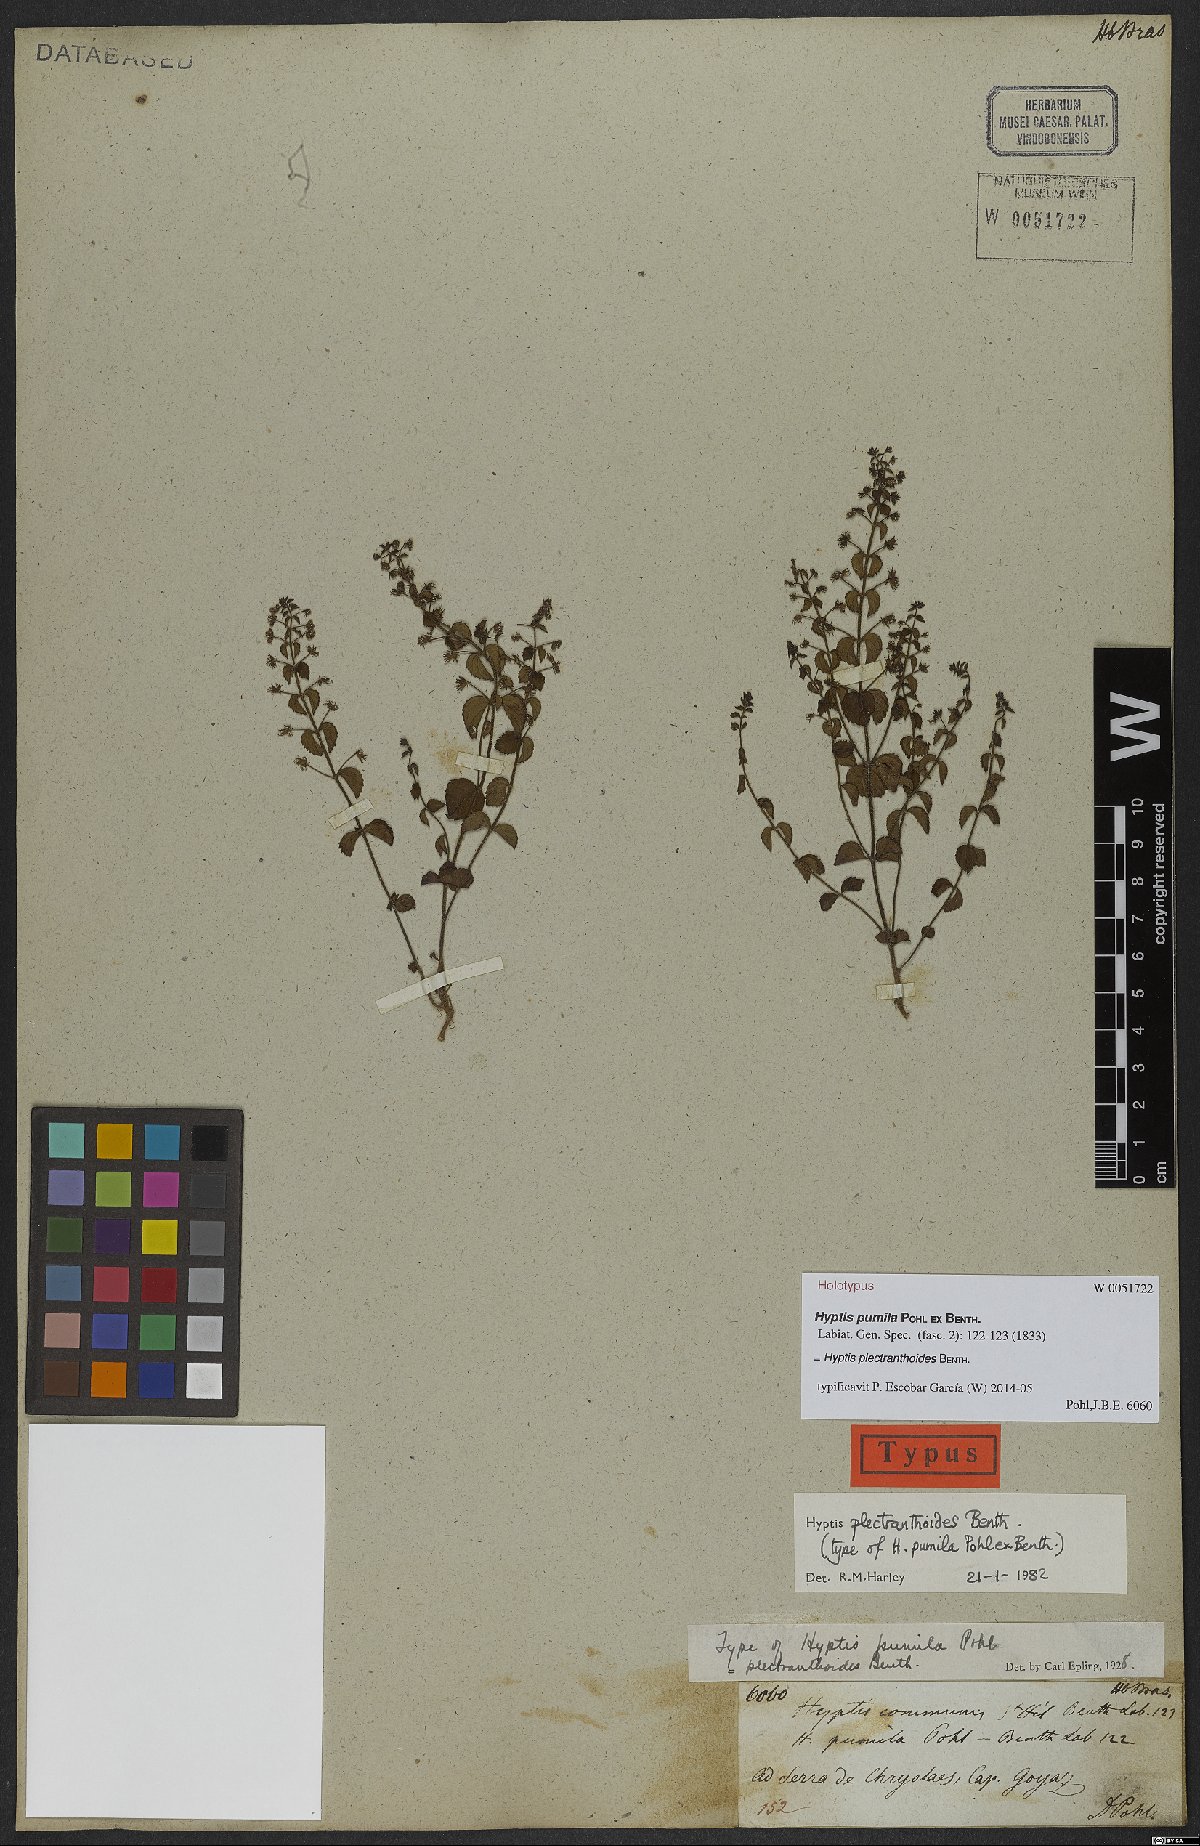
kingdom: Plantae
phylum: Tracheophyta
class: Magnoliopsida
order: Lamiales
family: Lamiaceae
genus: Cantinoa
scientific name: Cantinoa plectranthoides
